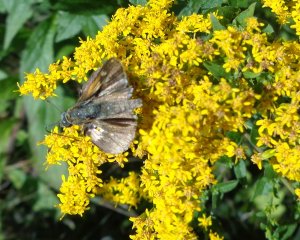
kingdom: Animalia
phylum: Arthropoda
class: Insecta
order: Lepidoptera
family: Hesperiidae
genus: Polites
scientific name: Polites themistocles
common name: Tawny-edged Skipper
